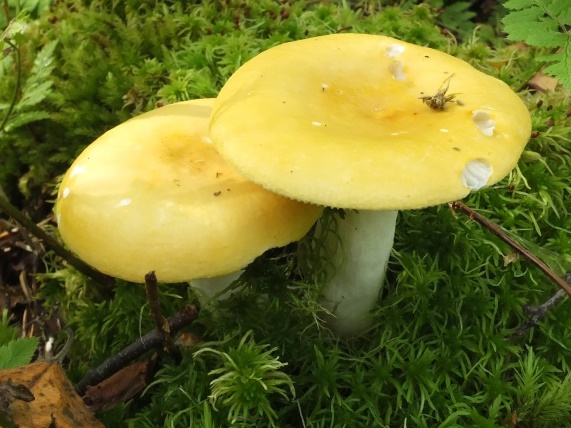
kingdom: Fungi
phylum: Basidiomycota
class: Agaricomycetes
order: Russulales
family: Russulaceae
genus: Russula
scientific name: Russula claroflava
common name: birke-skørhat
